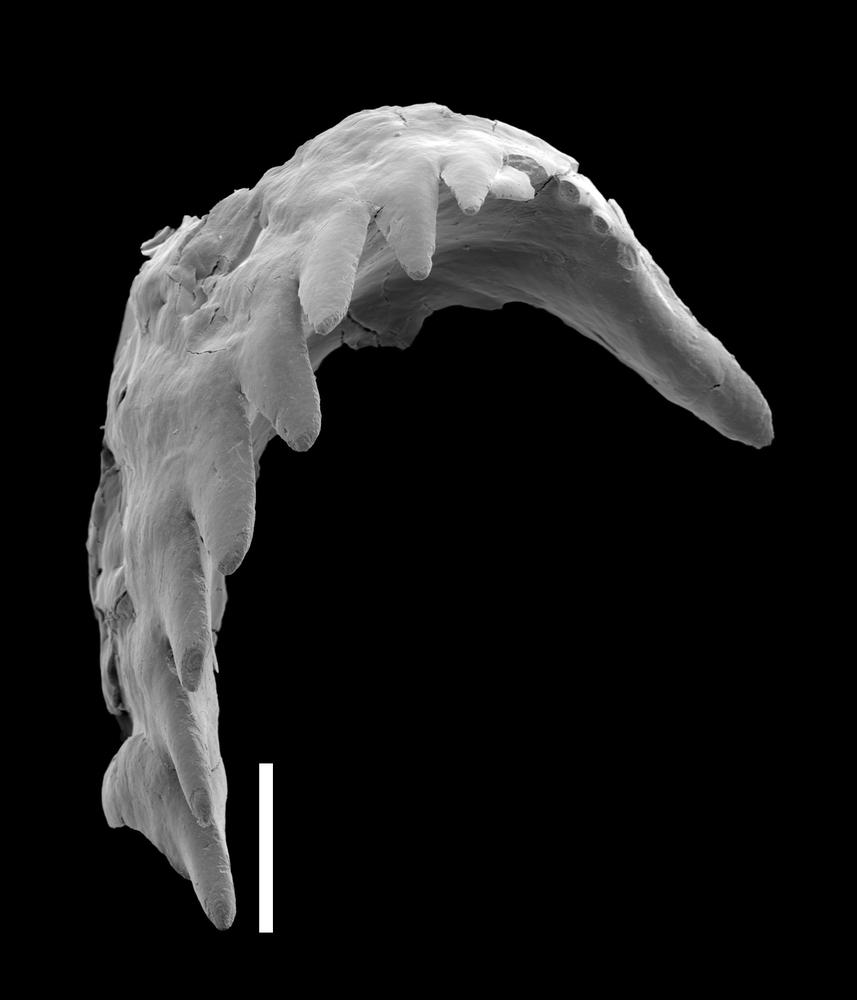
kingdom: Animalia
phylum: Annelida
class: Polychaeta
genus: Xanioprion
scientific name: Xanioprion
